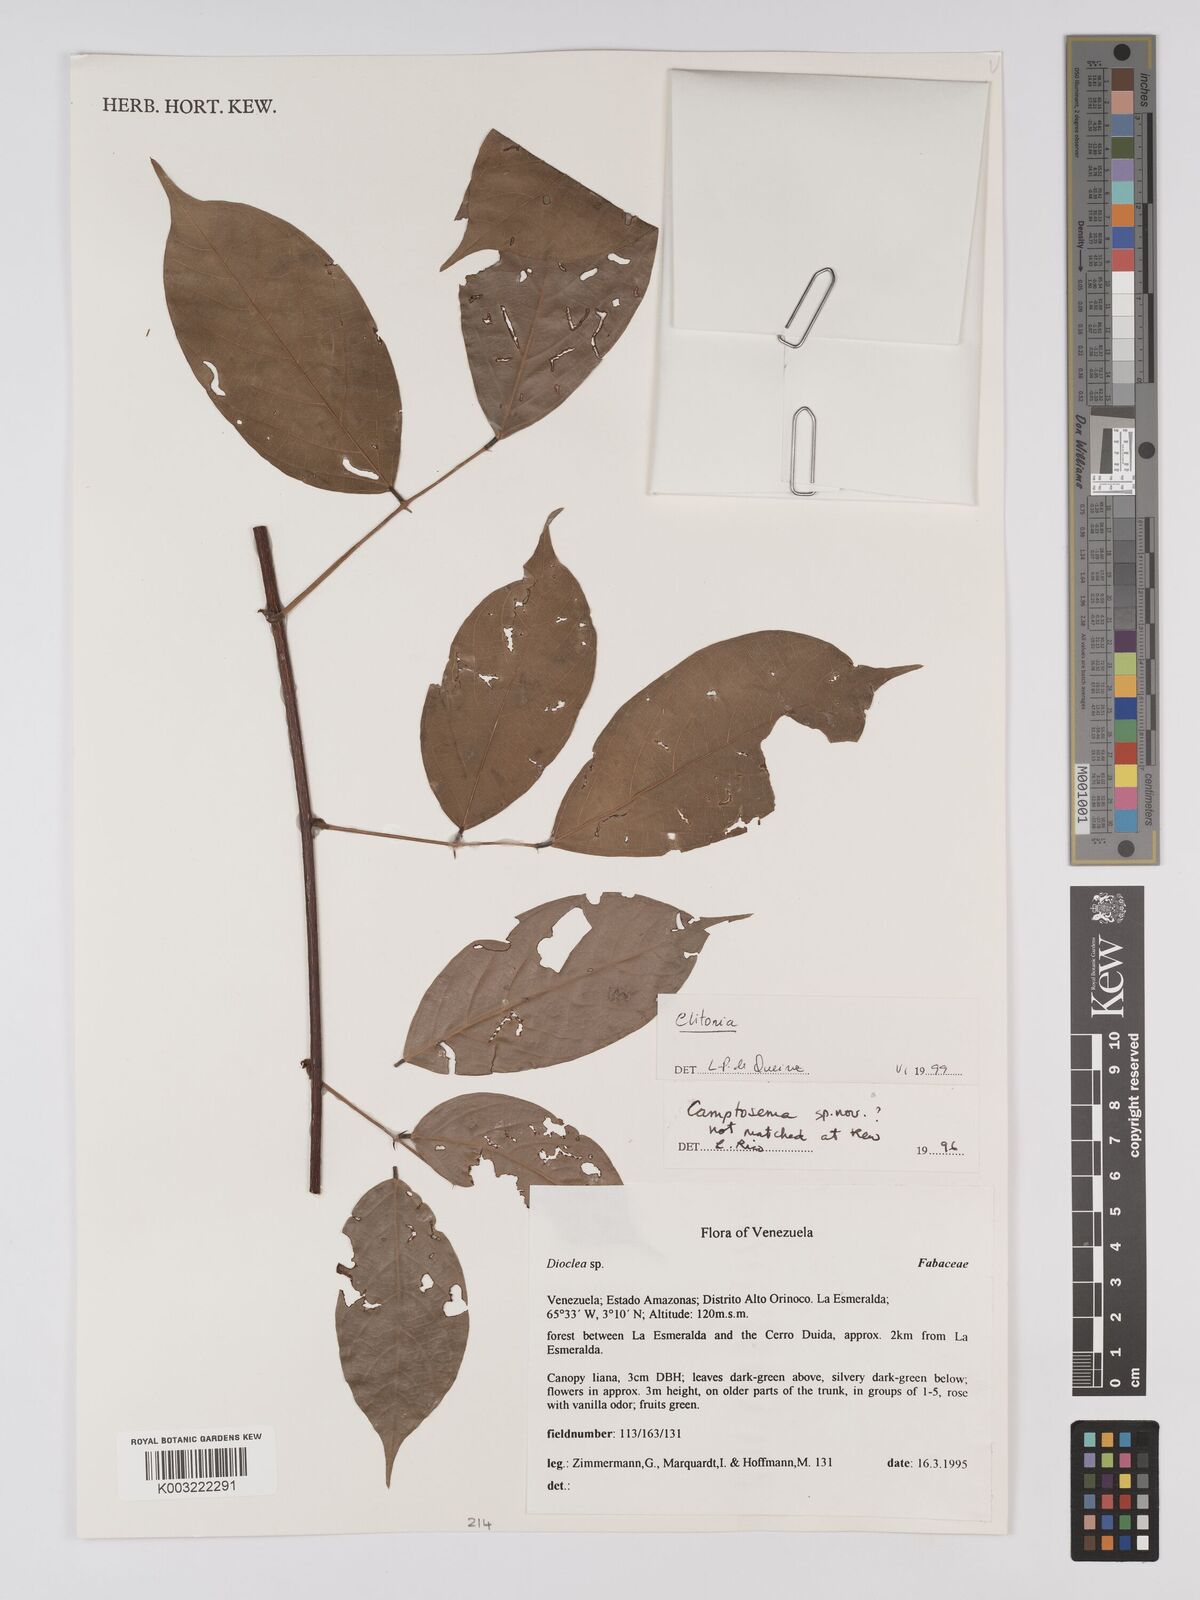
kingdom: Plantae
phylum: Tracheophyta
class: Magnoliopsida
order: Fabales
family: Fabaceae
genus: Clitoria
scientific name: Clitoria
